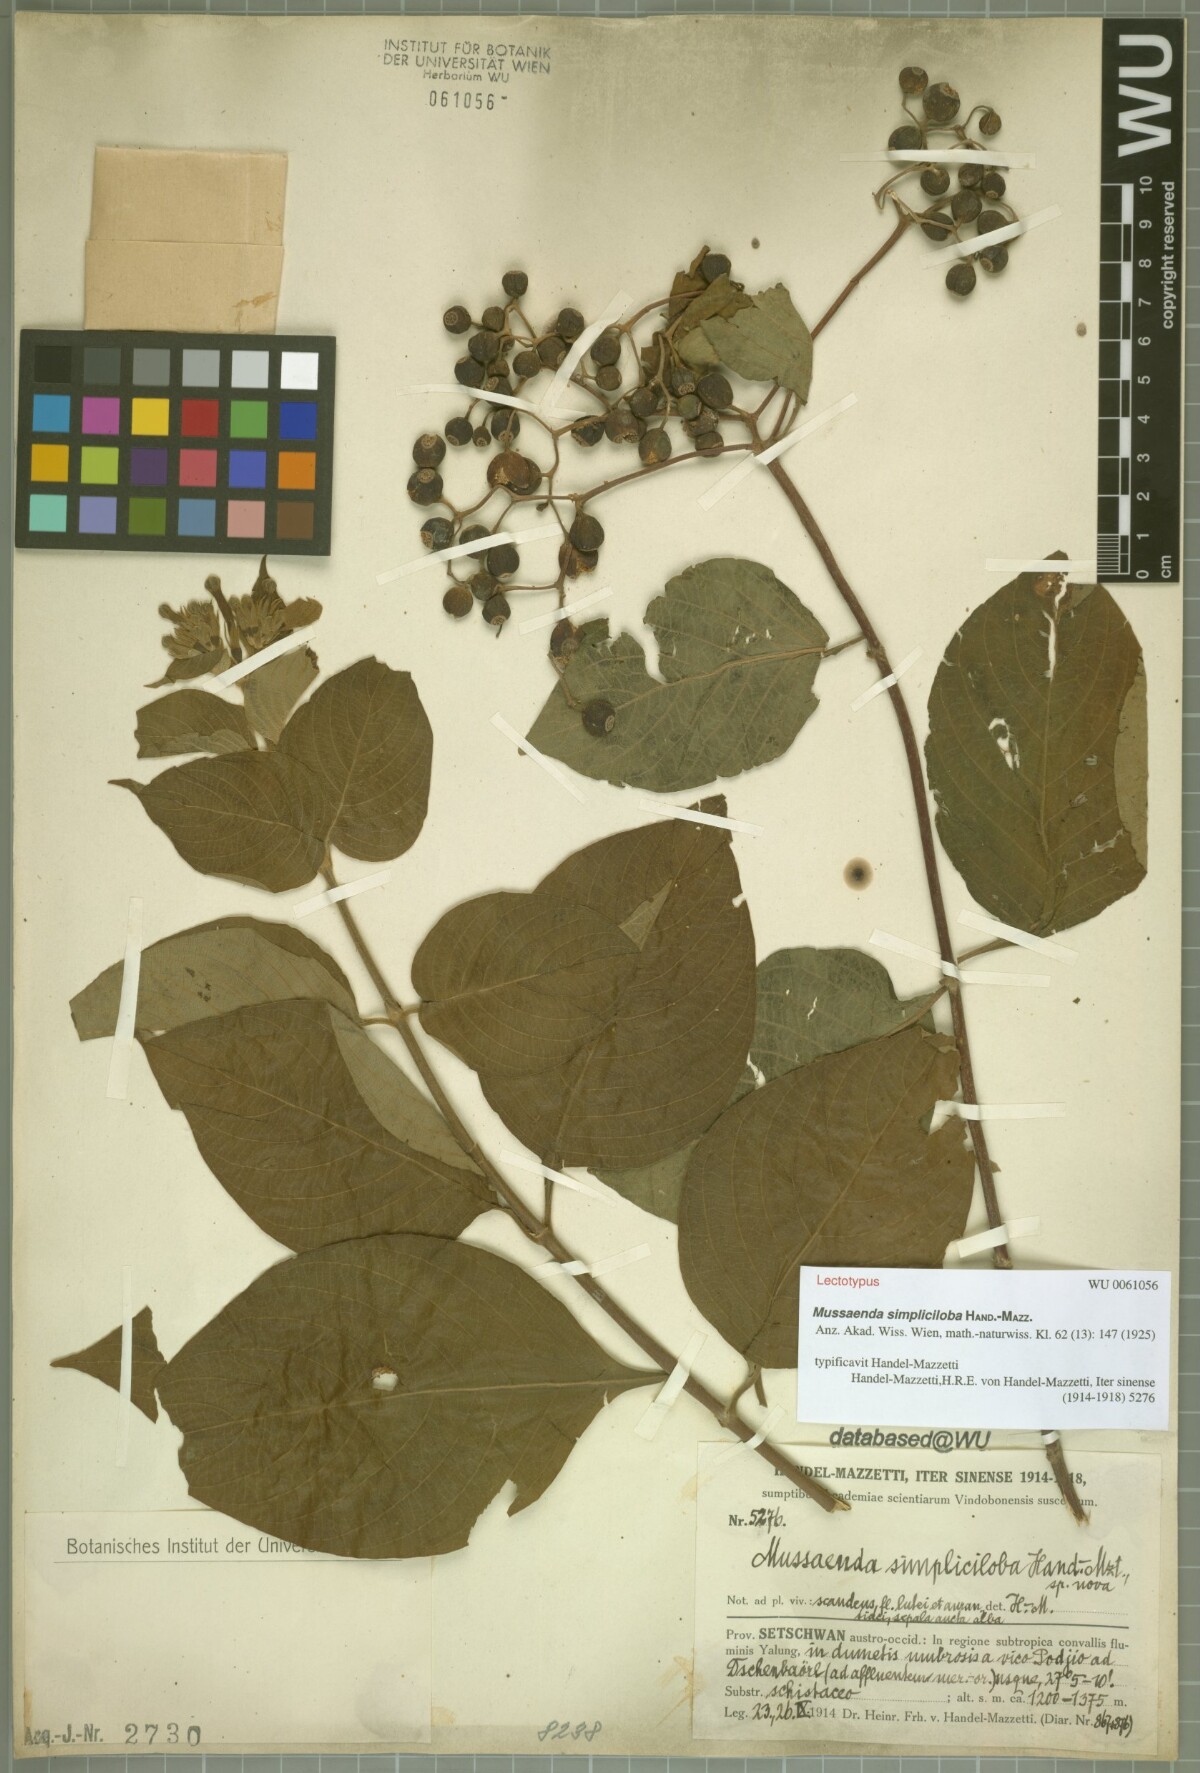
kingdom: Plantae
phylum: Tracheophyta
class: Magnoliopsida
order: Gentianales
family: Rubiaceae
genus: Mussaenda
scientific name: Mussaenda simpliciloba
